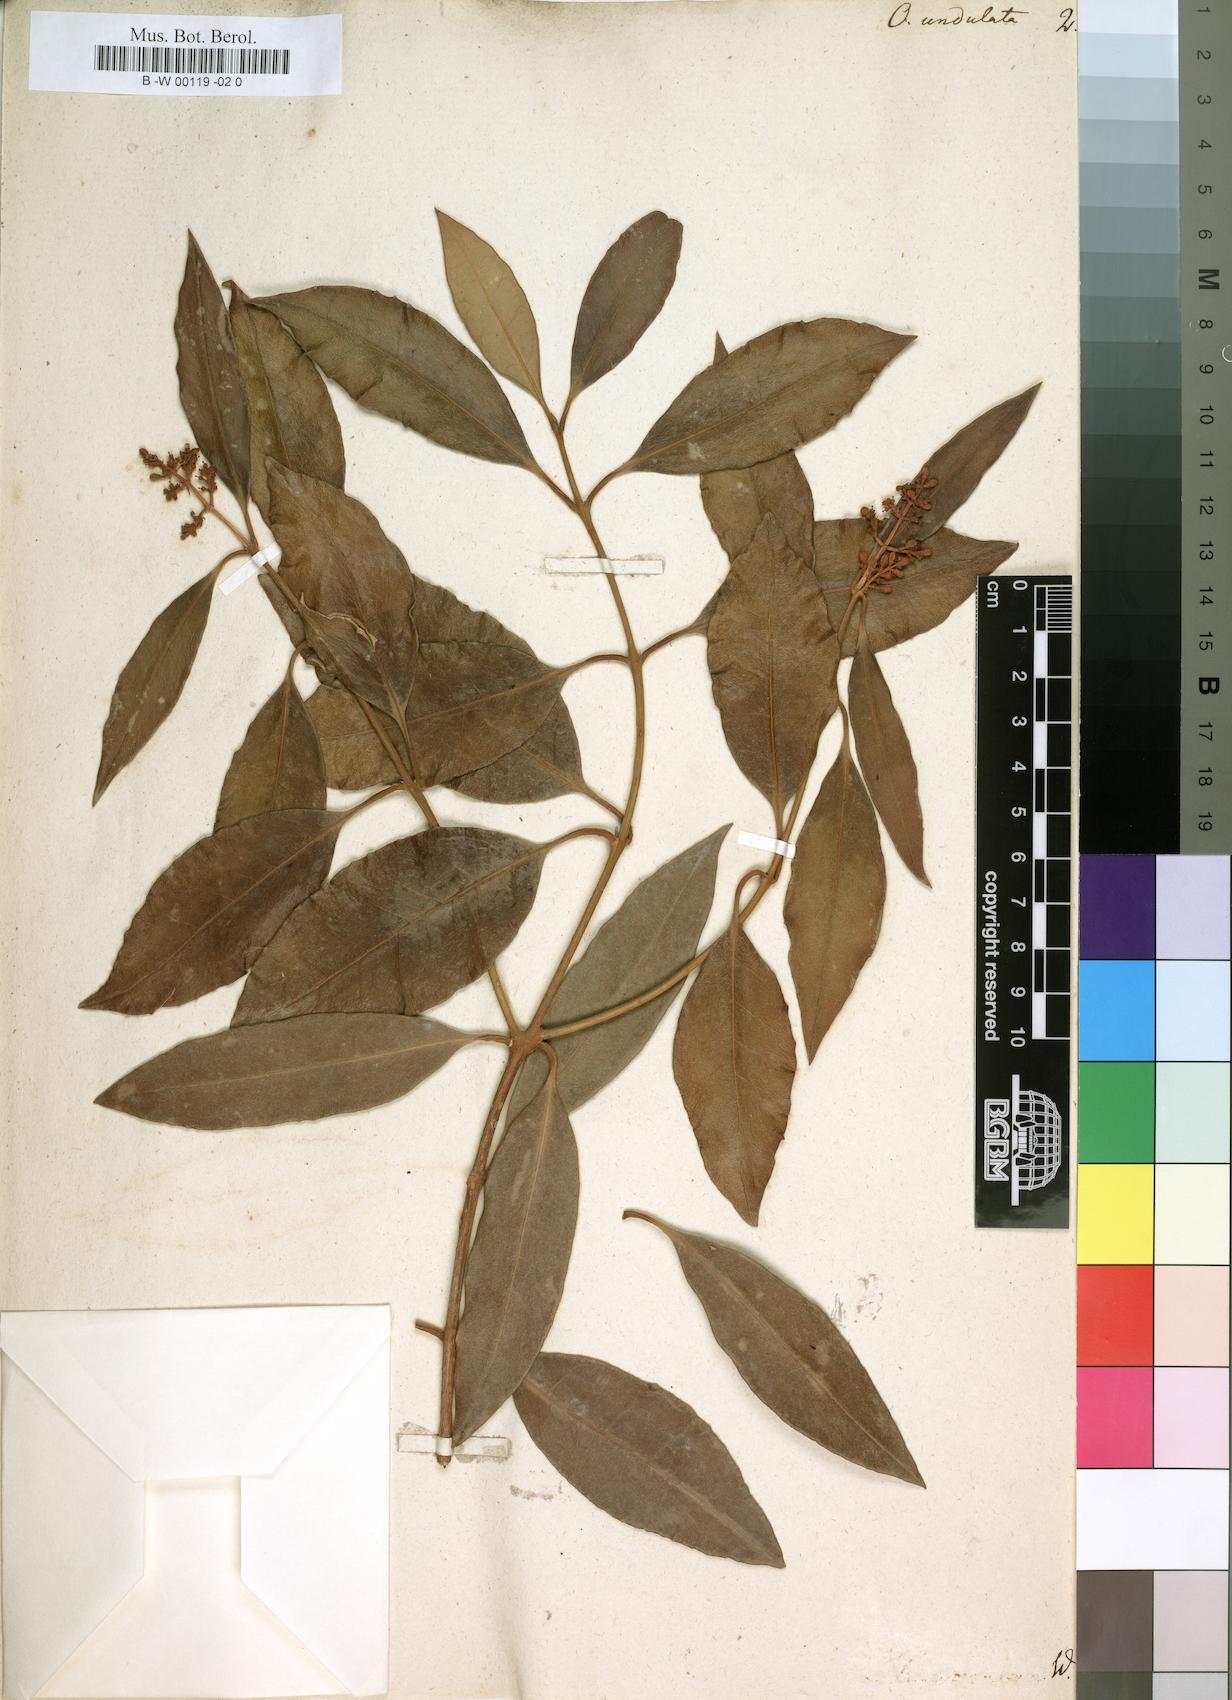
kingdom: Plantae
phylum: Tracheophyta
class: Magnoliopsida
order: Lamiales
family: Oleaceae
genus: Olea
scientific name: Olea capensis
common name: Black ironwood
